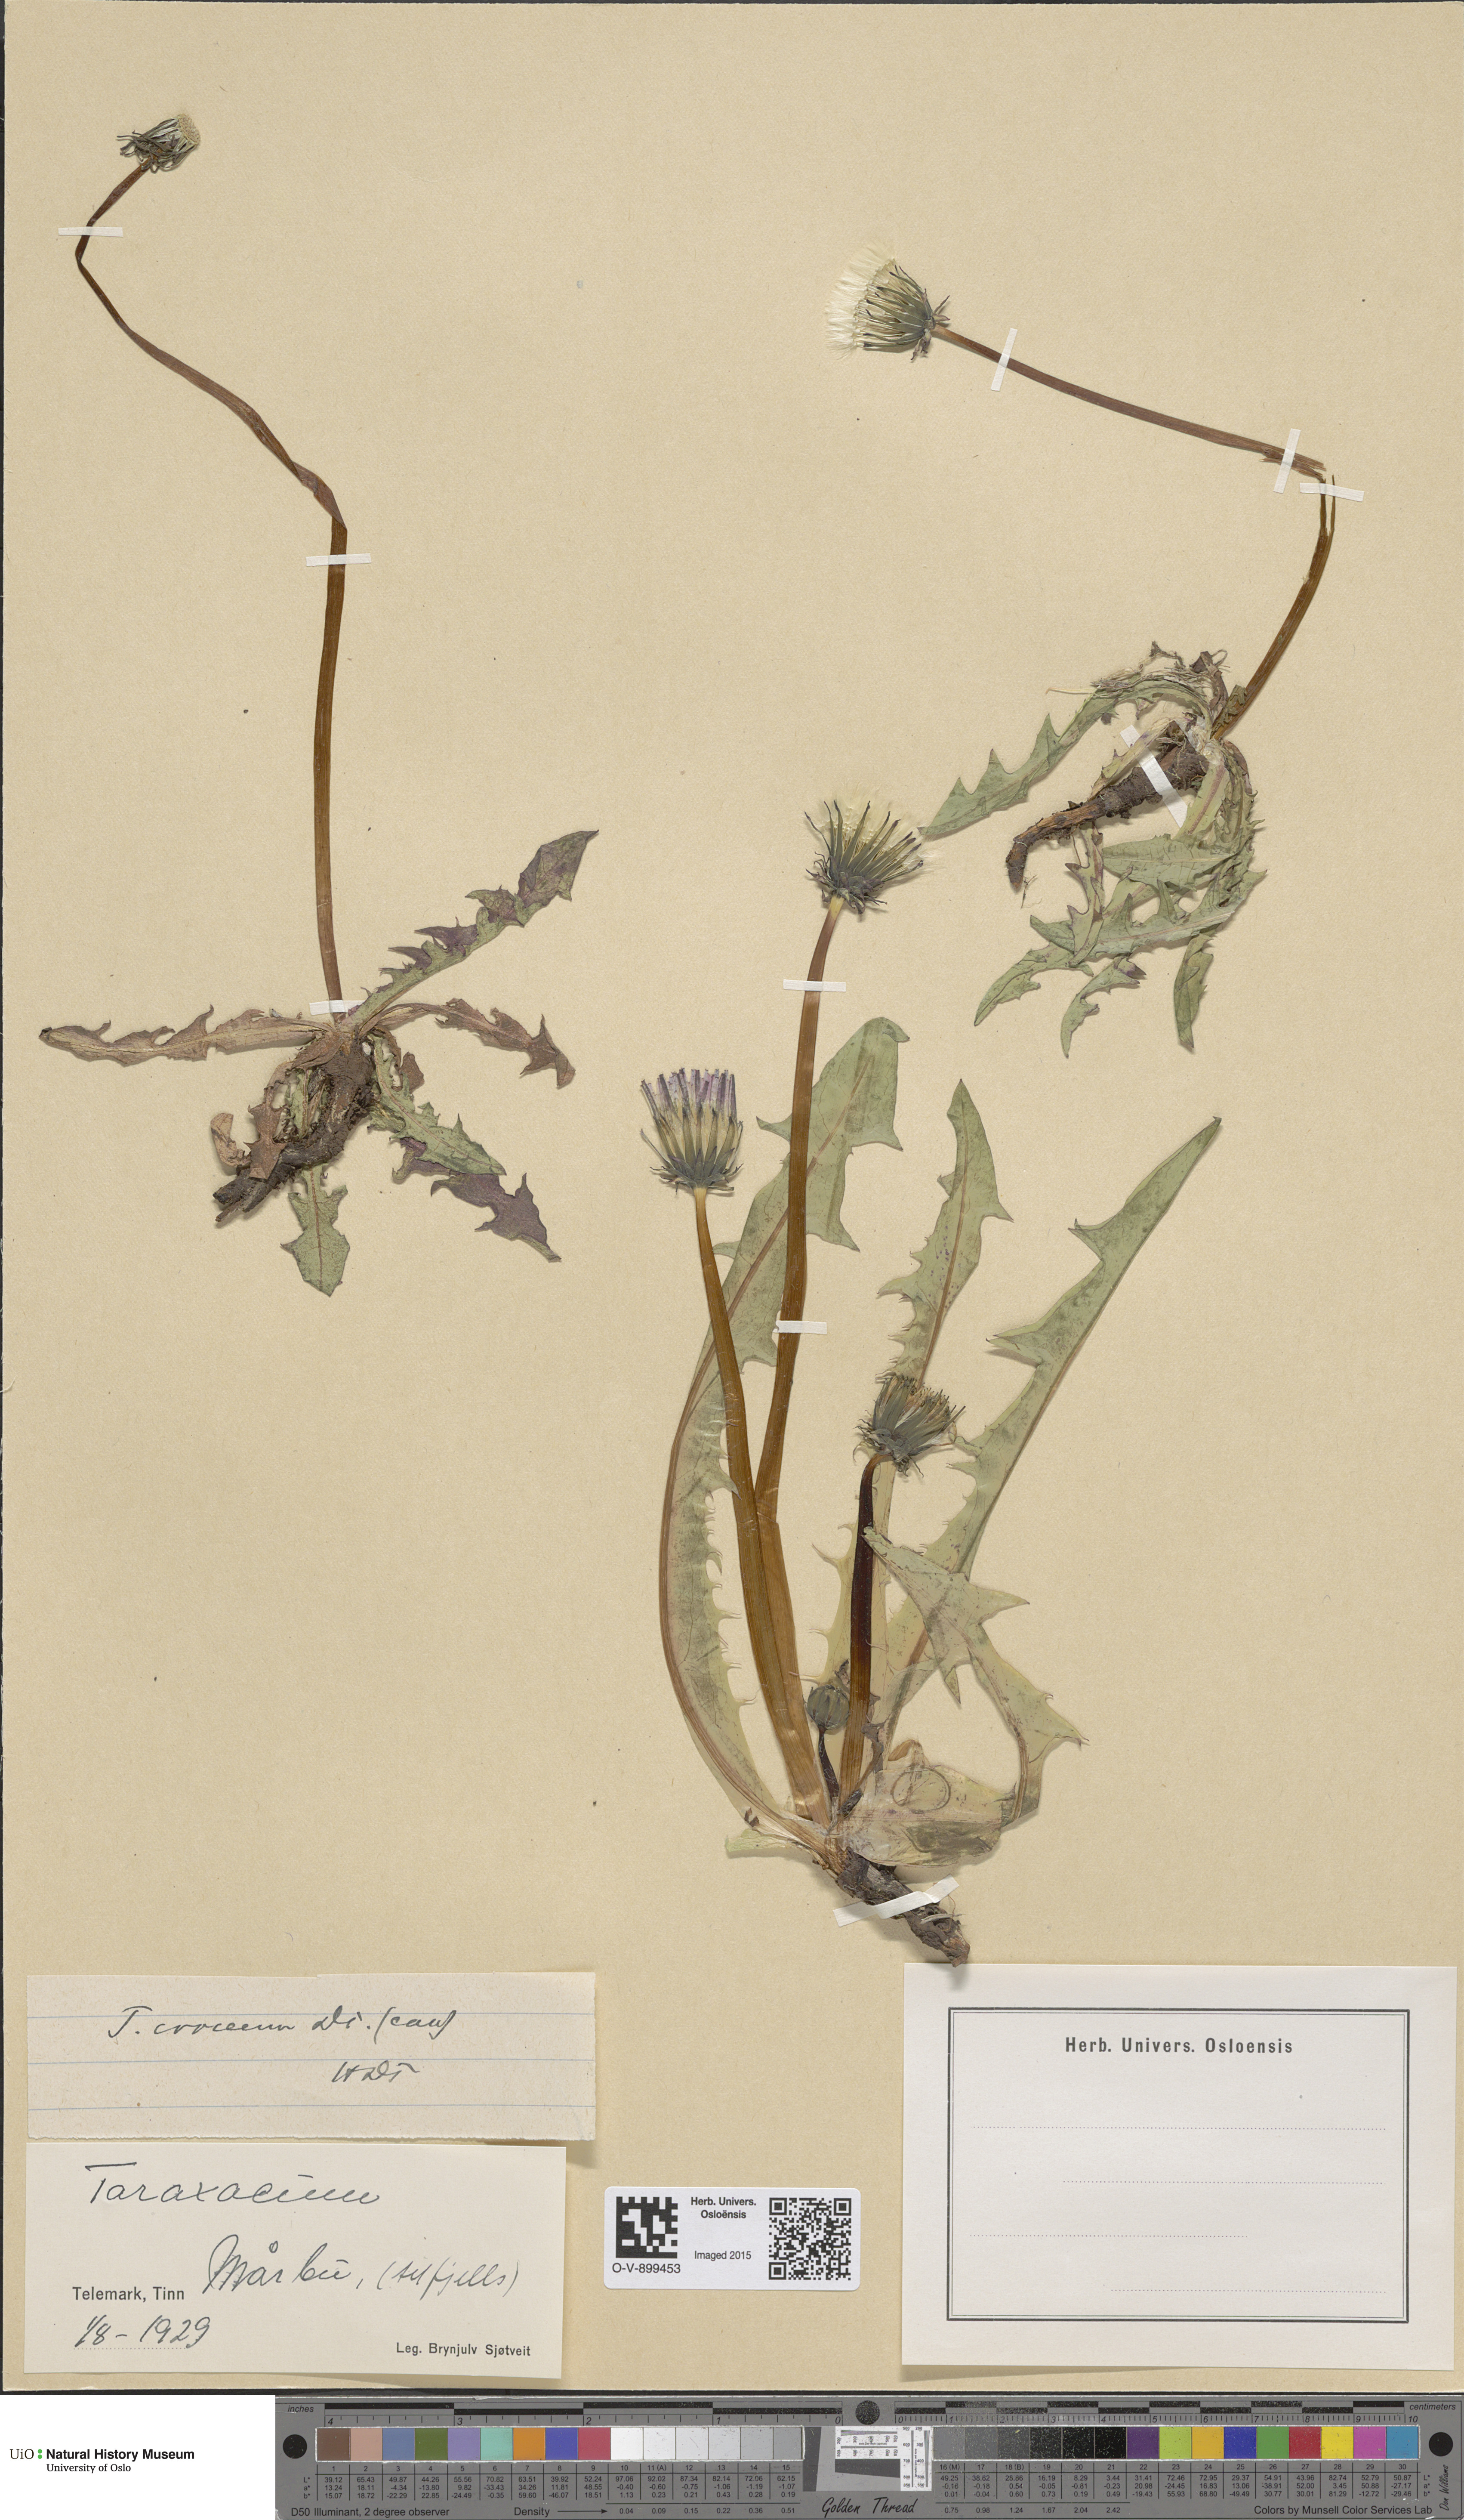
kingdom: Plantae
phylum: Tracheophyta
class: Magnoliopsida
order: Asterales
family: Asteraceae
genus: Taraxacum
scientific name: Taraxacum croceum
